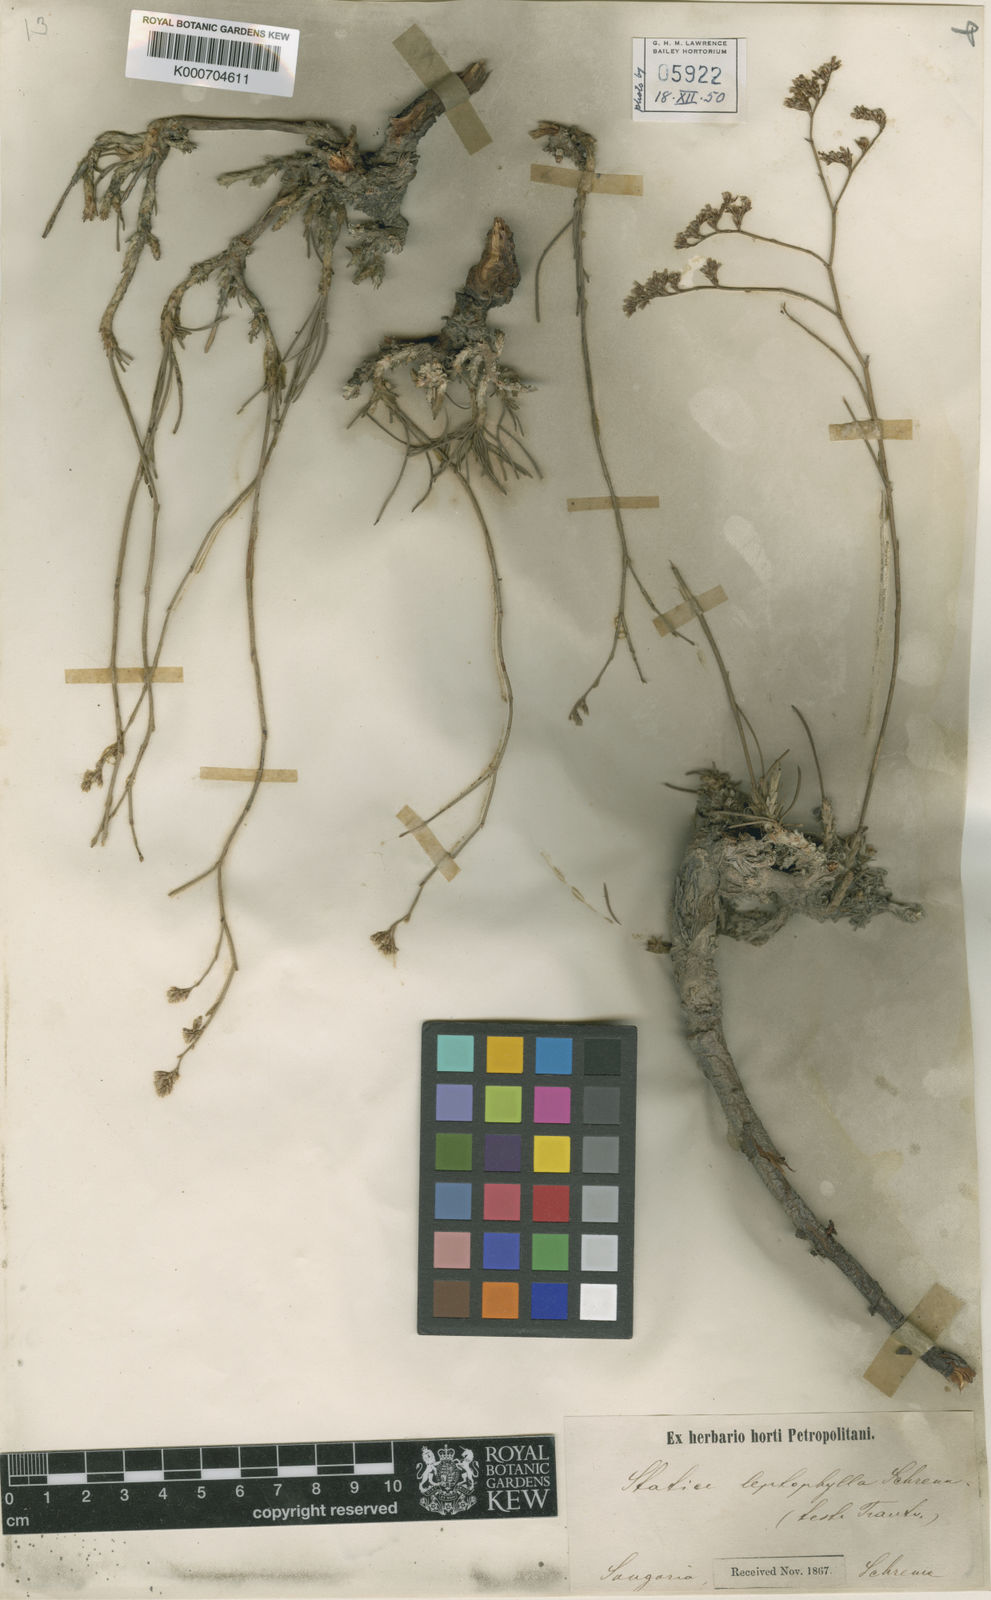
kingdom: Plantae
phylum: Tracheophyta
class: Magnoliopsida
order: Caryophyllales
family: Plumbaginaceae
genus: Limonium
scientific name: Limonium leptophyllum
